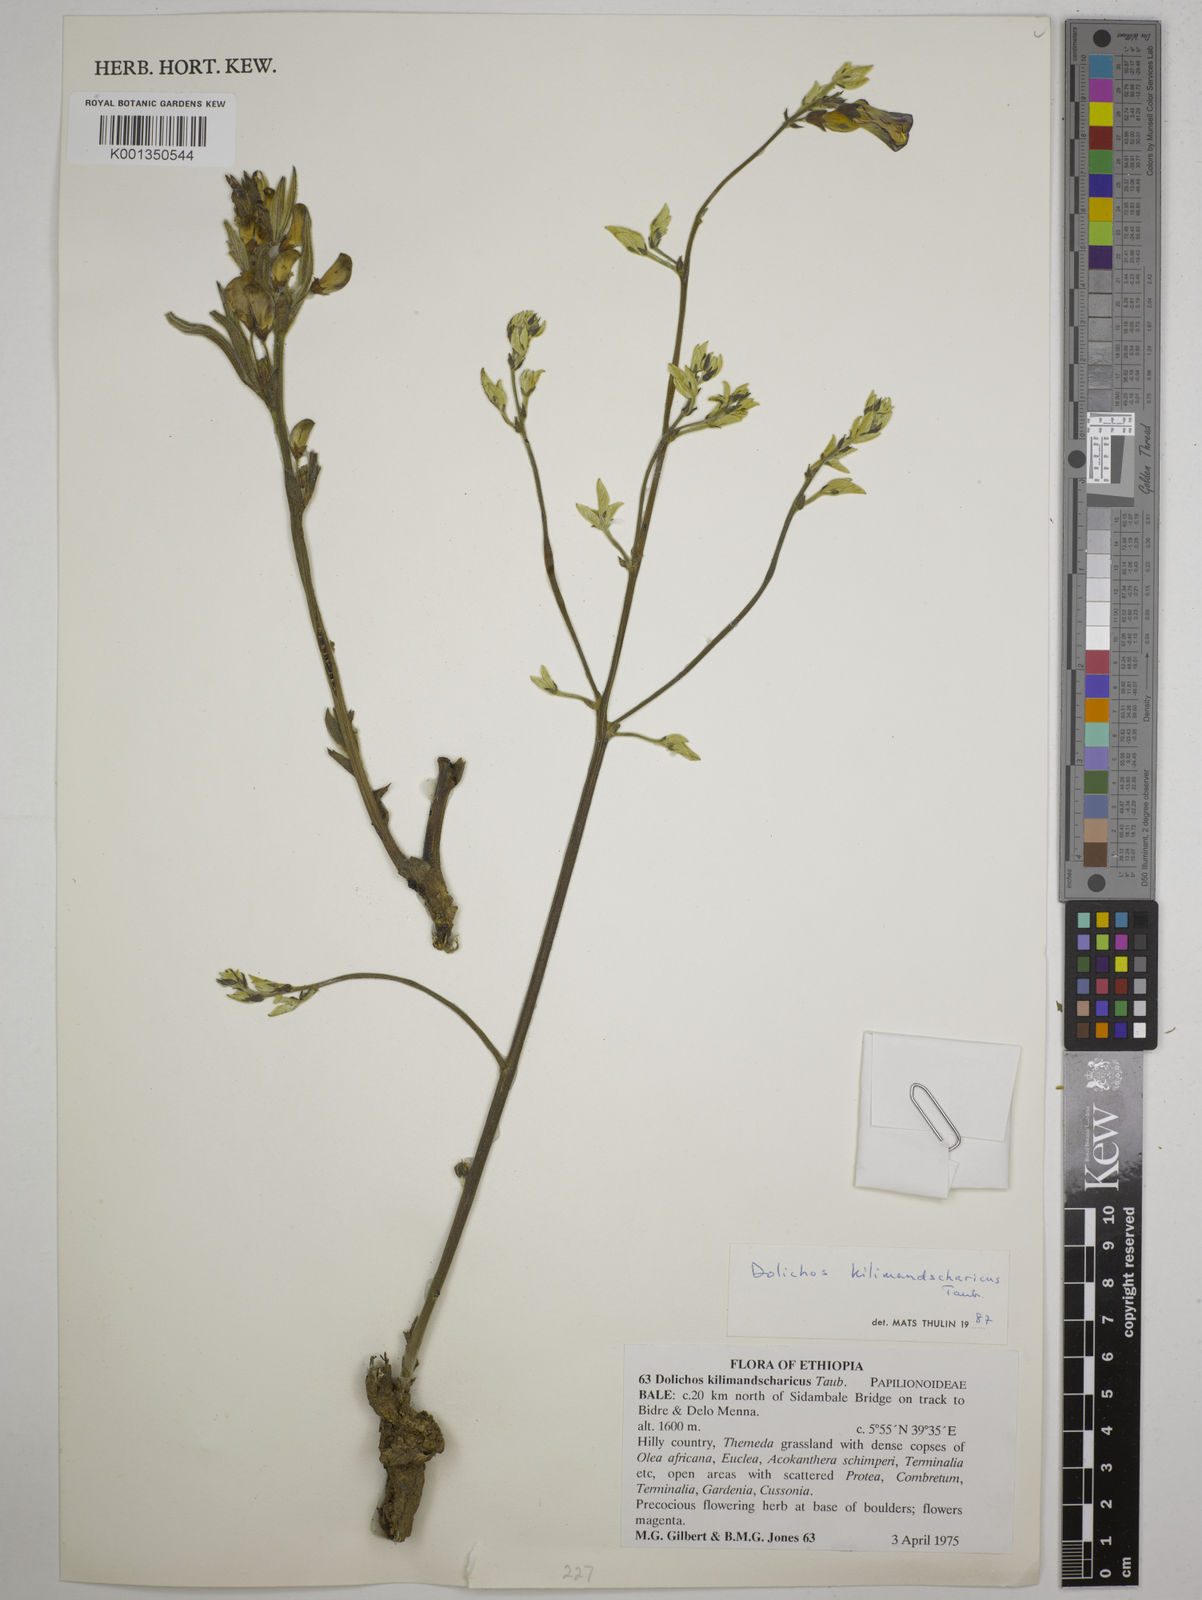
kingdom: Plantae
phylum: Tracheophyta
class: Magnoliopsida
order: Fabales
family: Fabaceae
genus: Dolichos
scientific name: Dolichos kilimandscharicus
